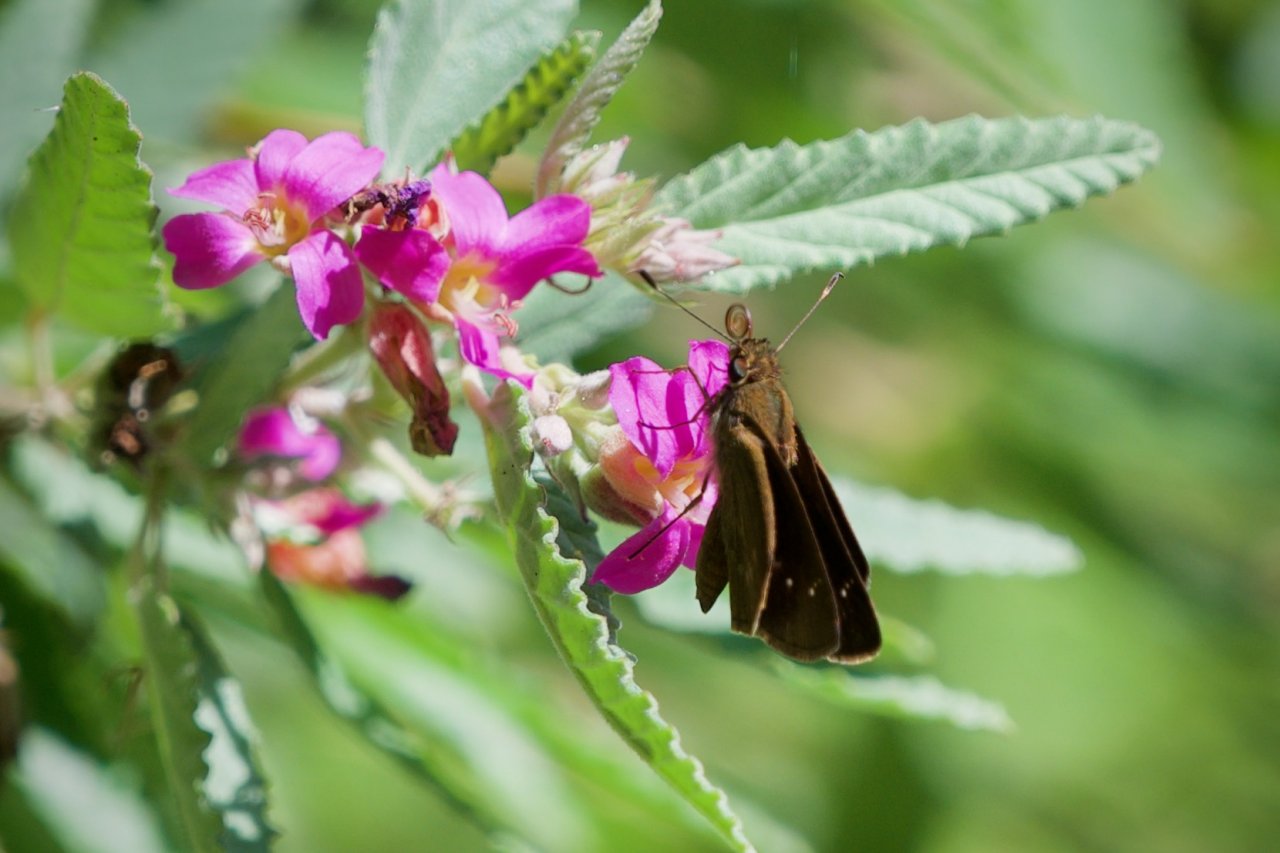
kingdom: Animalia
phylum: Arthropoda
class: Insecta
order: Lepidoptera
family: Hesperiidae
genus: Cymaenes
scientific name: Cymaenes tripunctus
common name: Three-spotted Skipper
